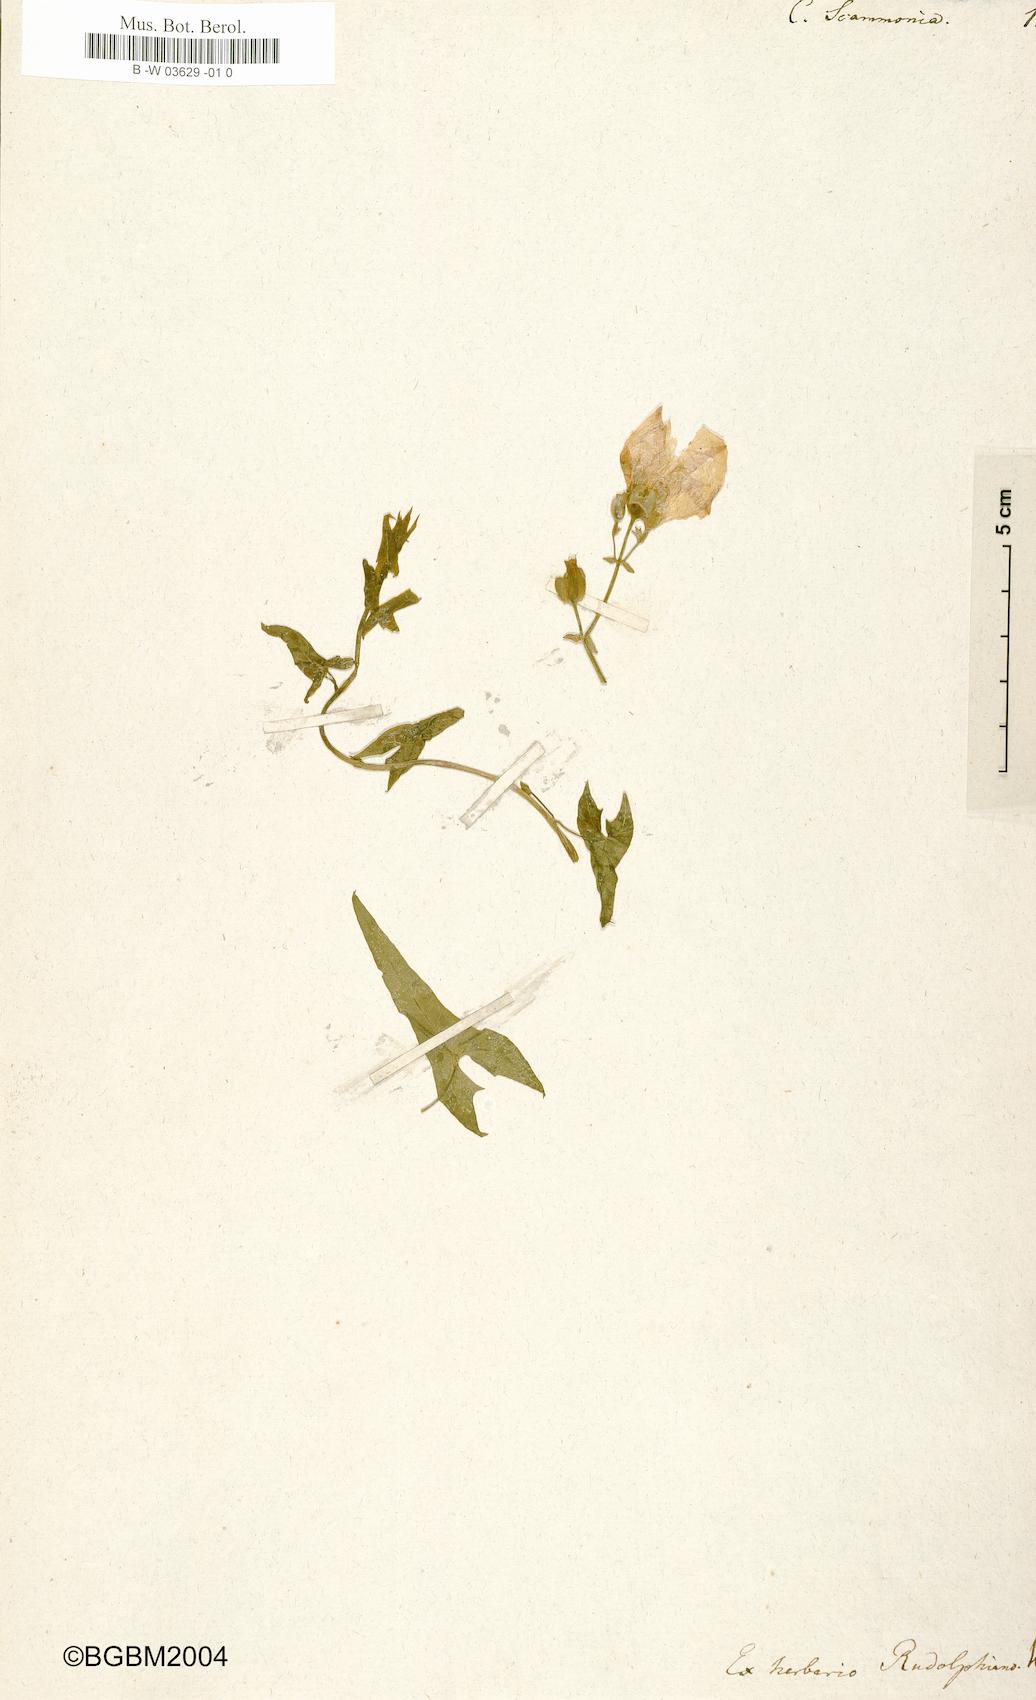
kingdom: Plantae
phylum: Tracheophyta
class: Magnoliopsida
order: Solanales
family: Convolvulaceae
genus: Convolvulus
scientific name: Convolvulus scammonia
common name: Scammony
